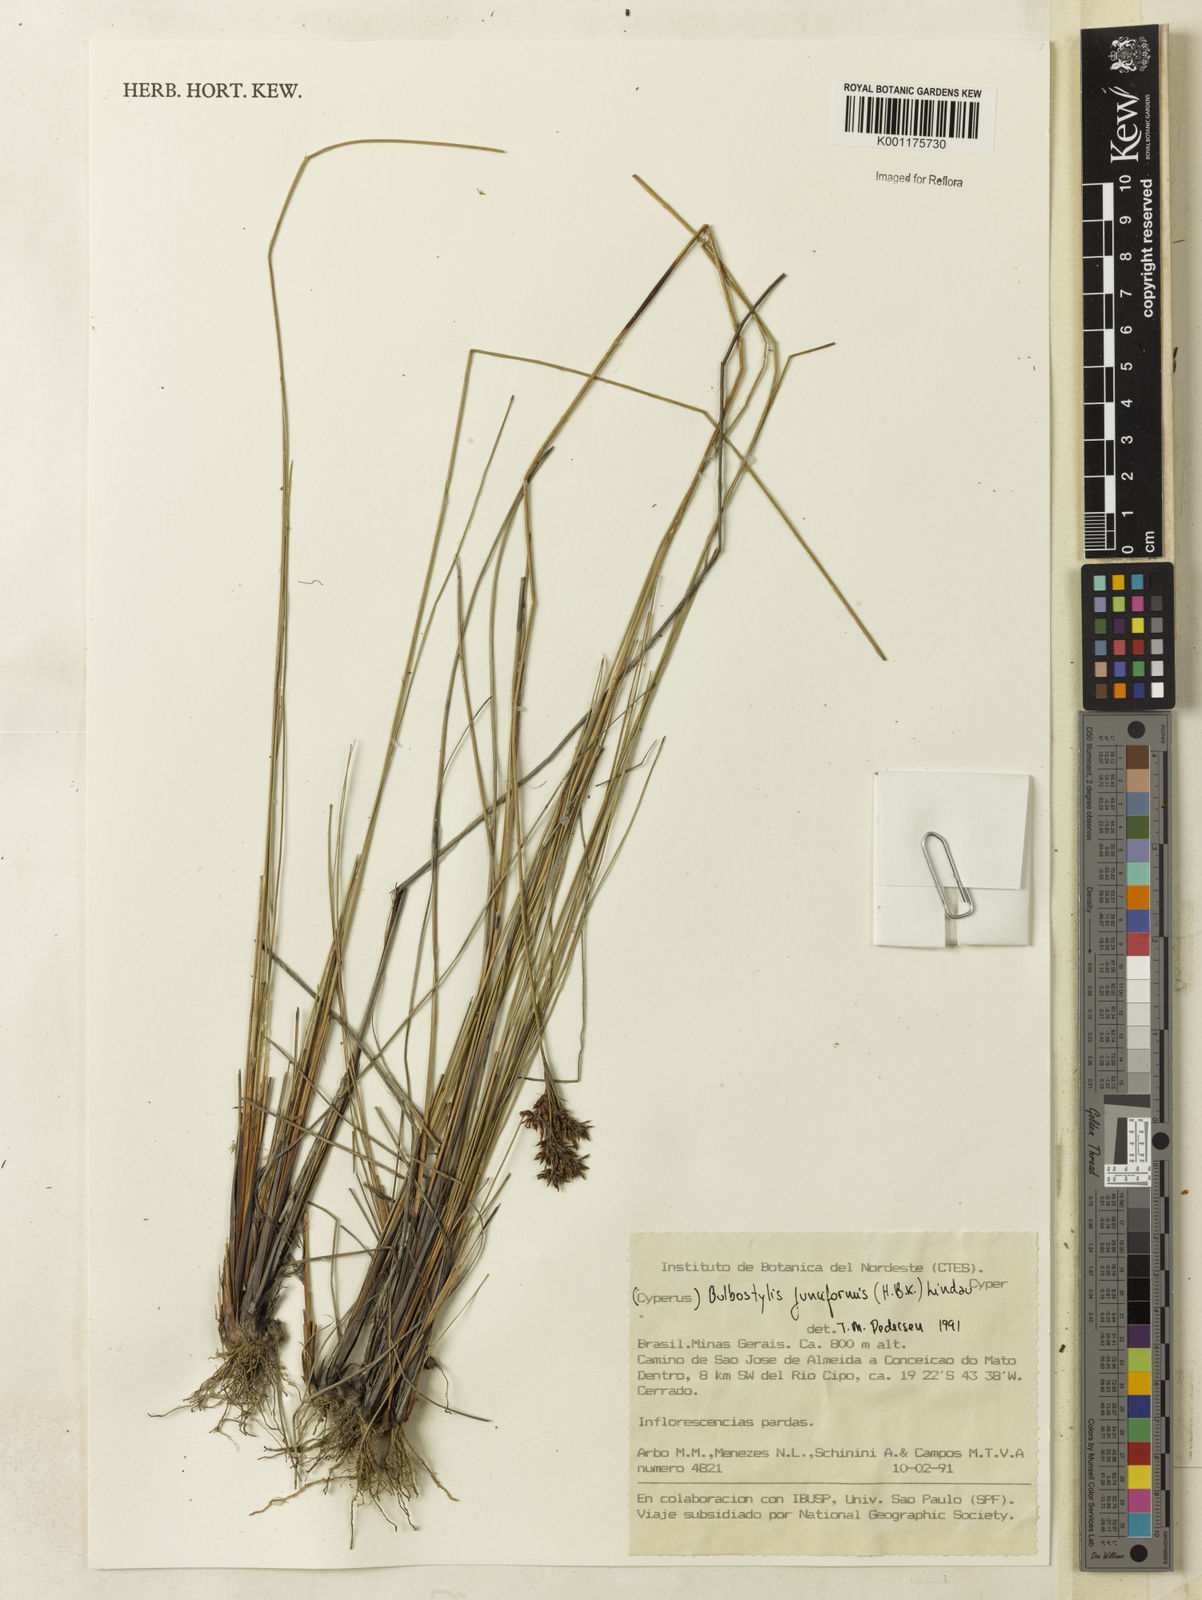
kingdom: Plantae
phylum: Tracheophyta
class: Liliopsida
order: Poales
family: Cyperaceae
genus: Bulbostylis
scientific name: Bulbostylis junciformis
